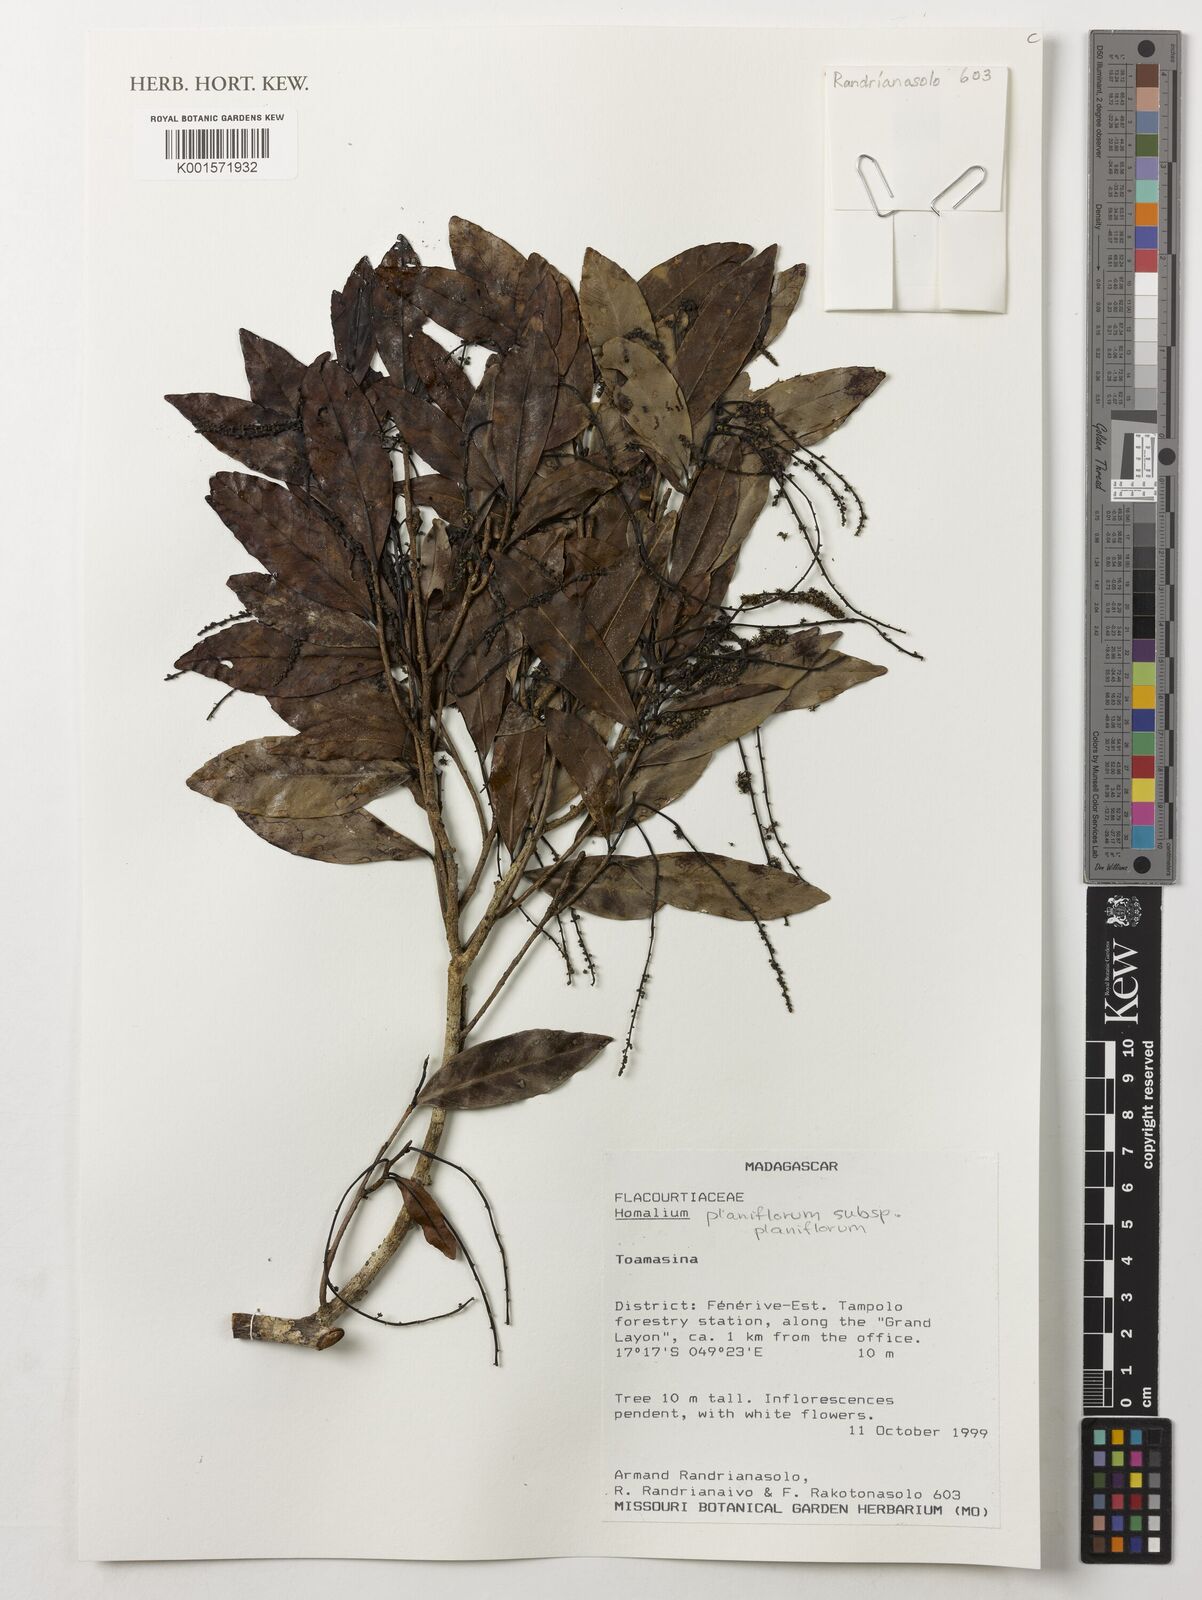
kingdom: Plantae
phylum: Tracheophyta
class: Magnoliopsida
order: Malpighiales
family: Salicaceae
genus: Homalium
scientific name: Homalium planiflorum
